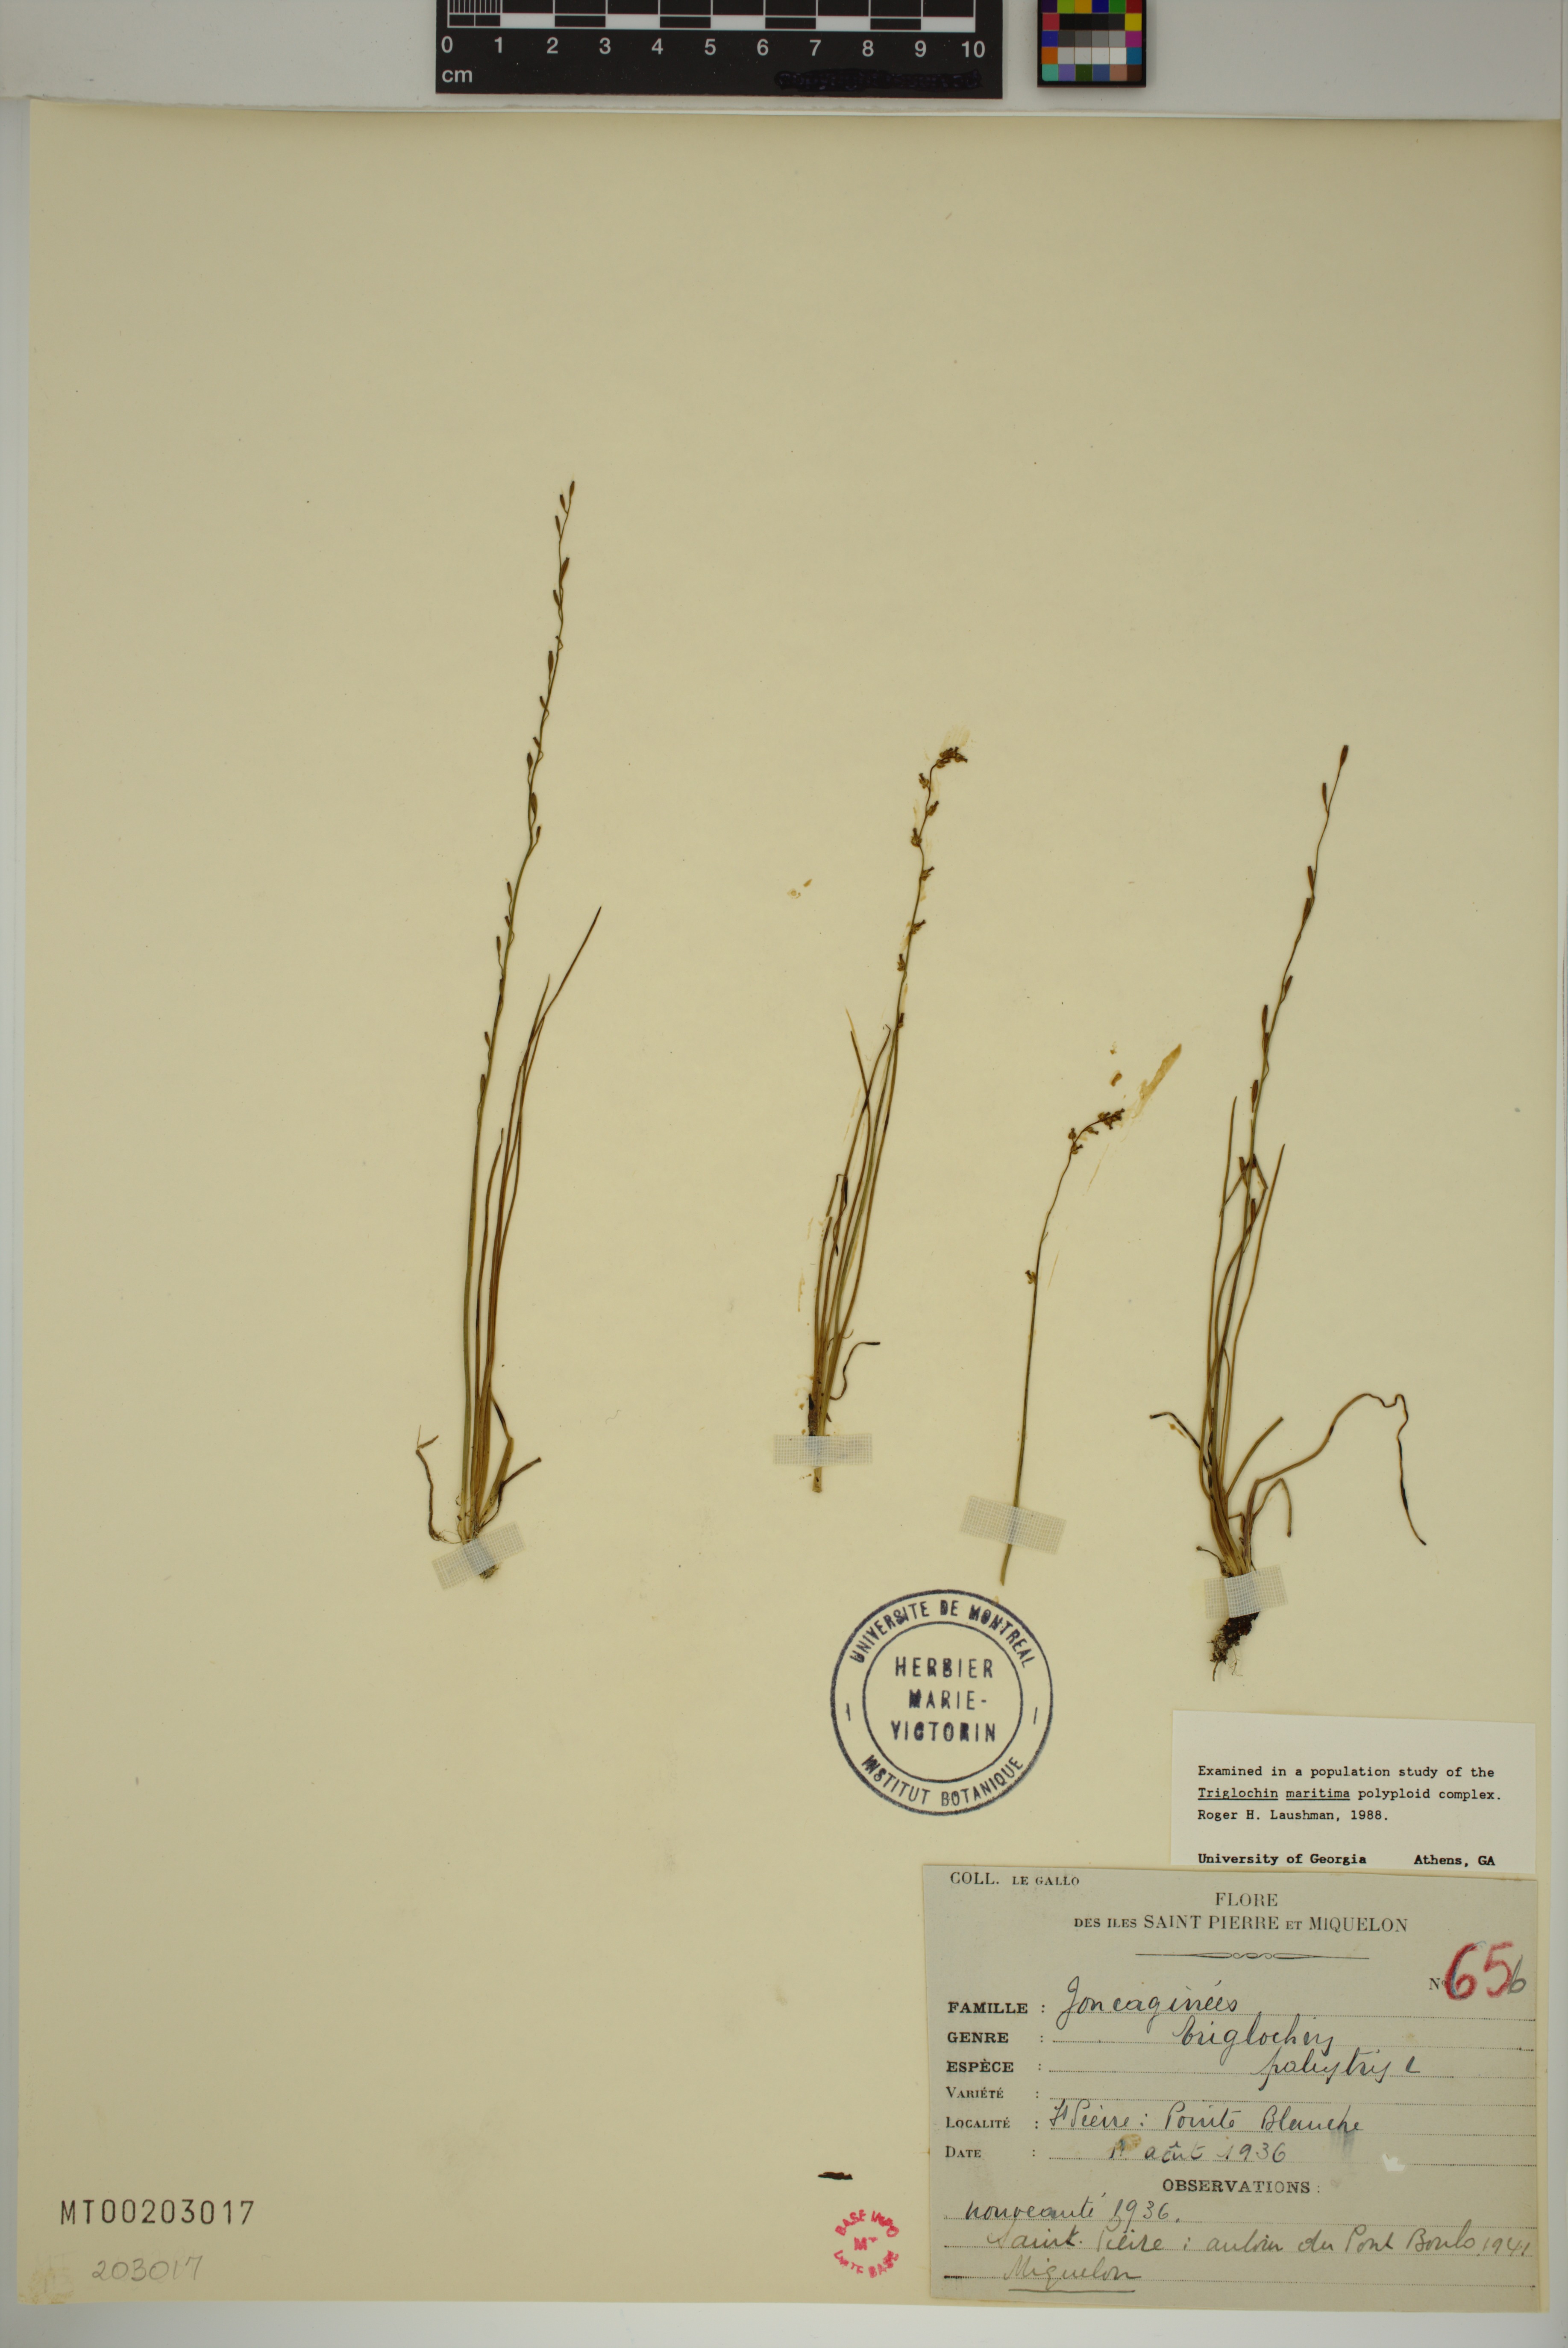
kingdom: Plantae
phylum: Tracheophyta
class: Liliopsida
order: Alismatales
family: Juncaginaceae
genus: Triglochin
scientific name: Triglochin palustris
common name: Marsh arrowgrass
